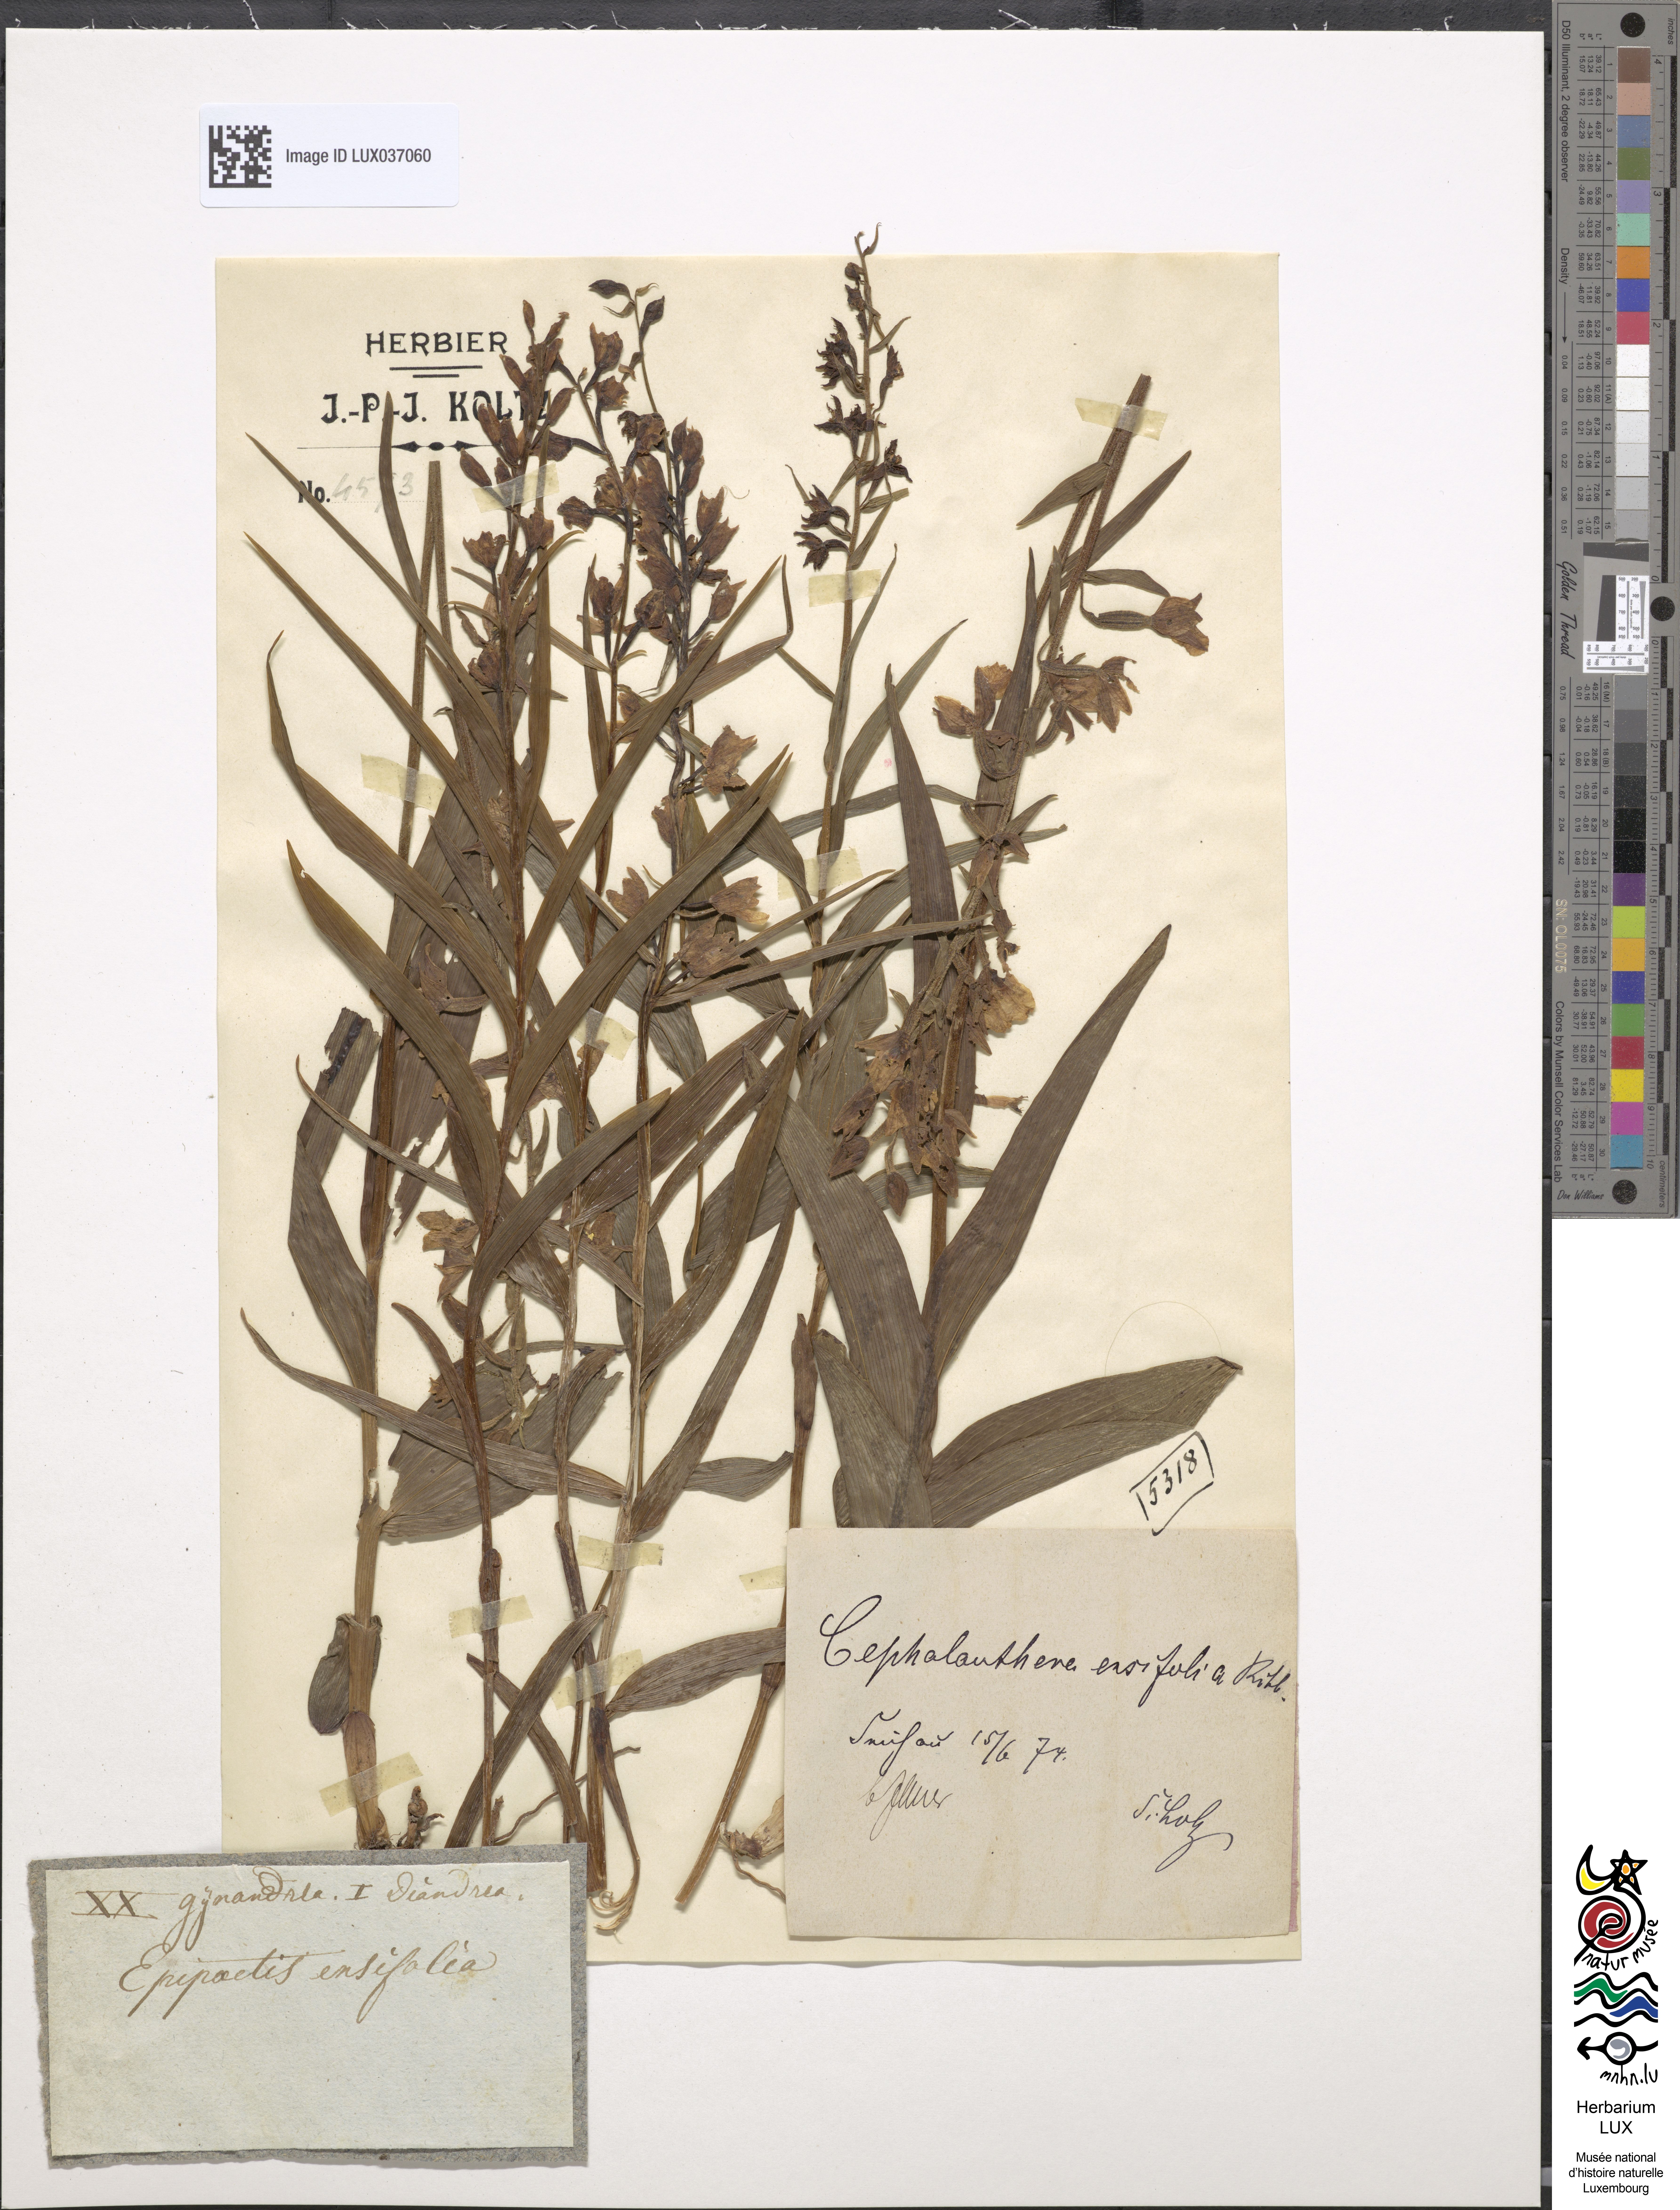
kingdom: Plantae
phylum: Tracheophyta
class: Liliopsida
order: Asparagales
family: Orchidaceae
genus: Cephalanthera
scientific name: Cephalanthera longifolia
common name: Narrow-leaved helleborine
